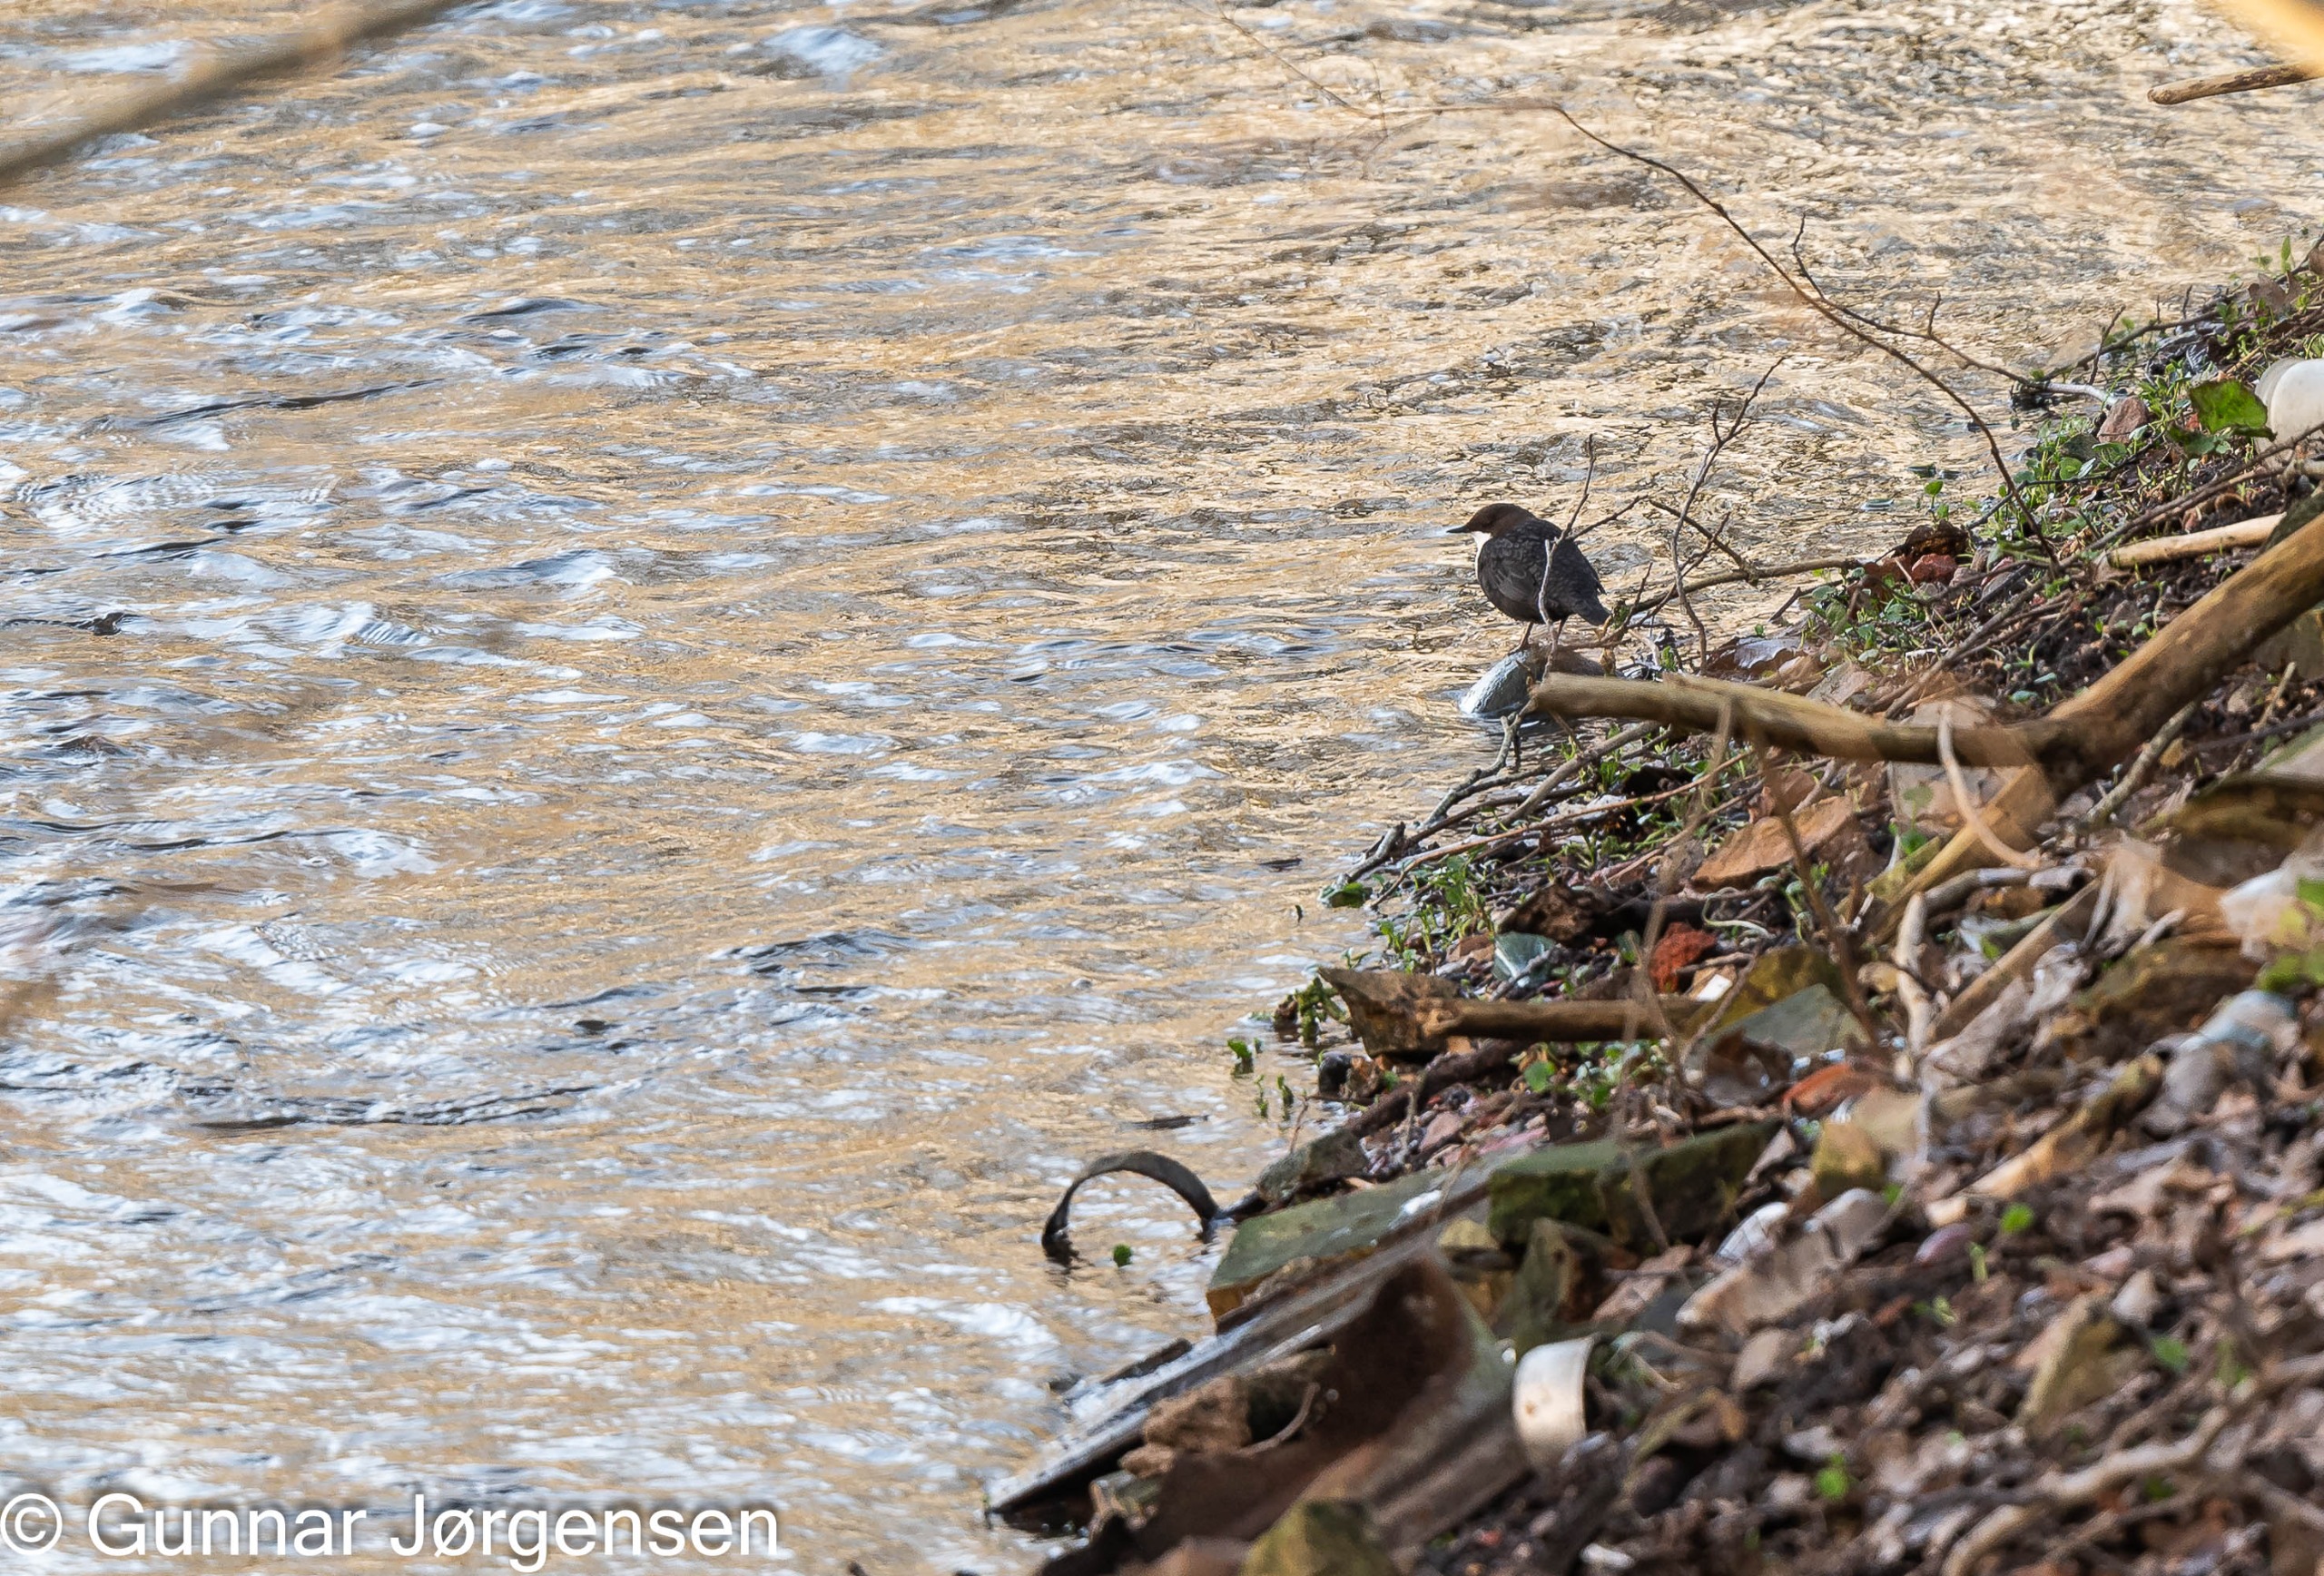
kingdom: Animalia
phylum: Chordata
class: Aves
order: Passeriformes
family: Cinclidae
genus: Cinclus
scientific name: Cinclus cinclus
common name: Vandstær
